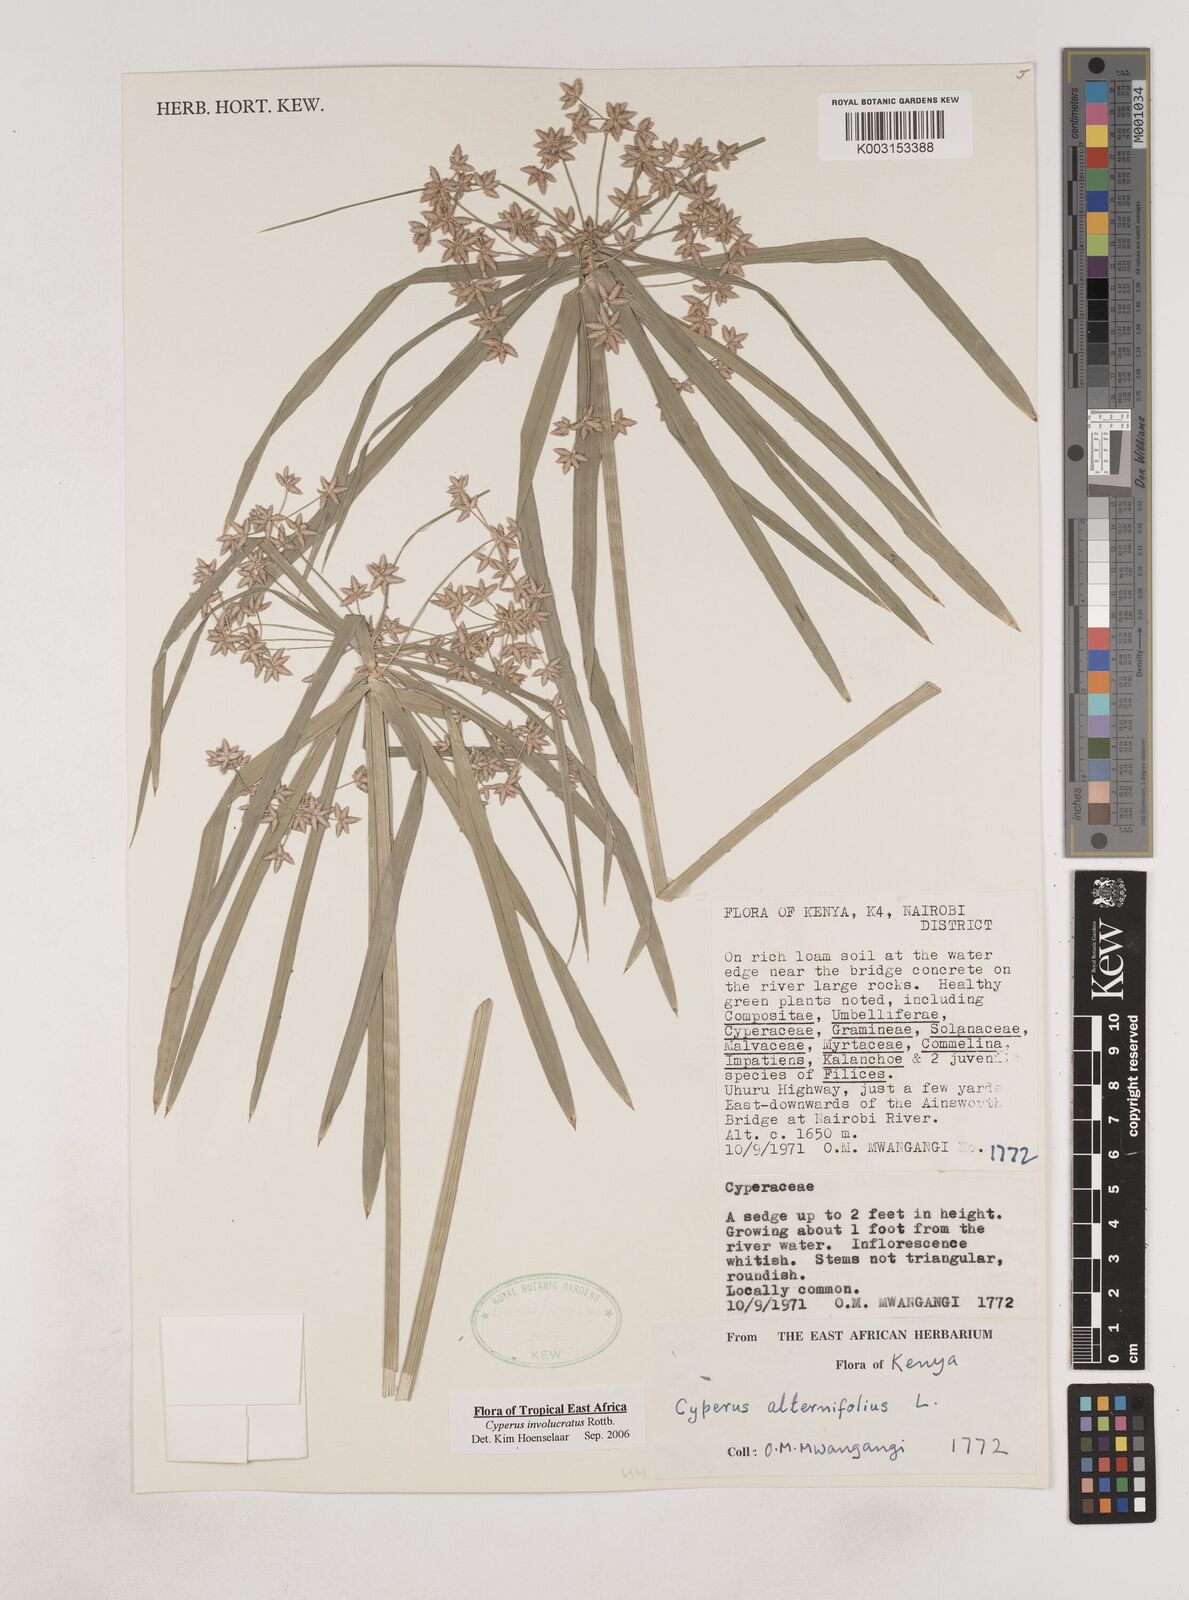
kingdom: Plantae
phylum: Tracheophyta
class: Liliopsida
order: Poales
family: Cyperaceae
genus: Cyperus
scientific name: Cyperus alternifolius
